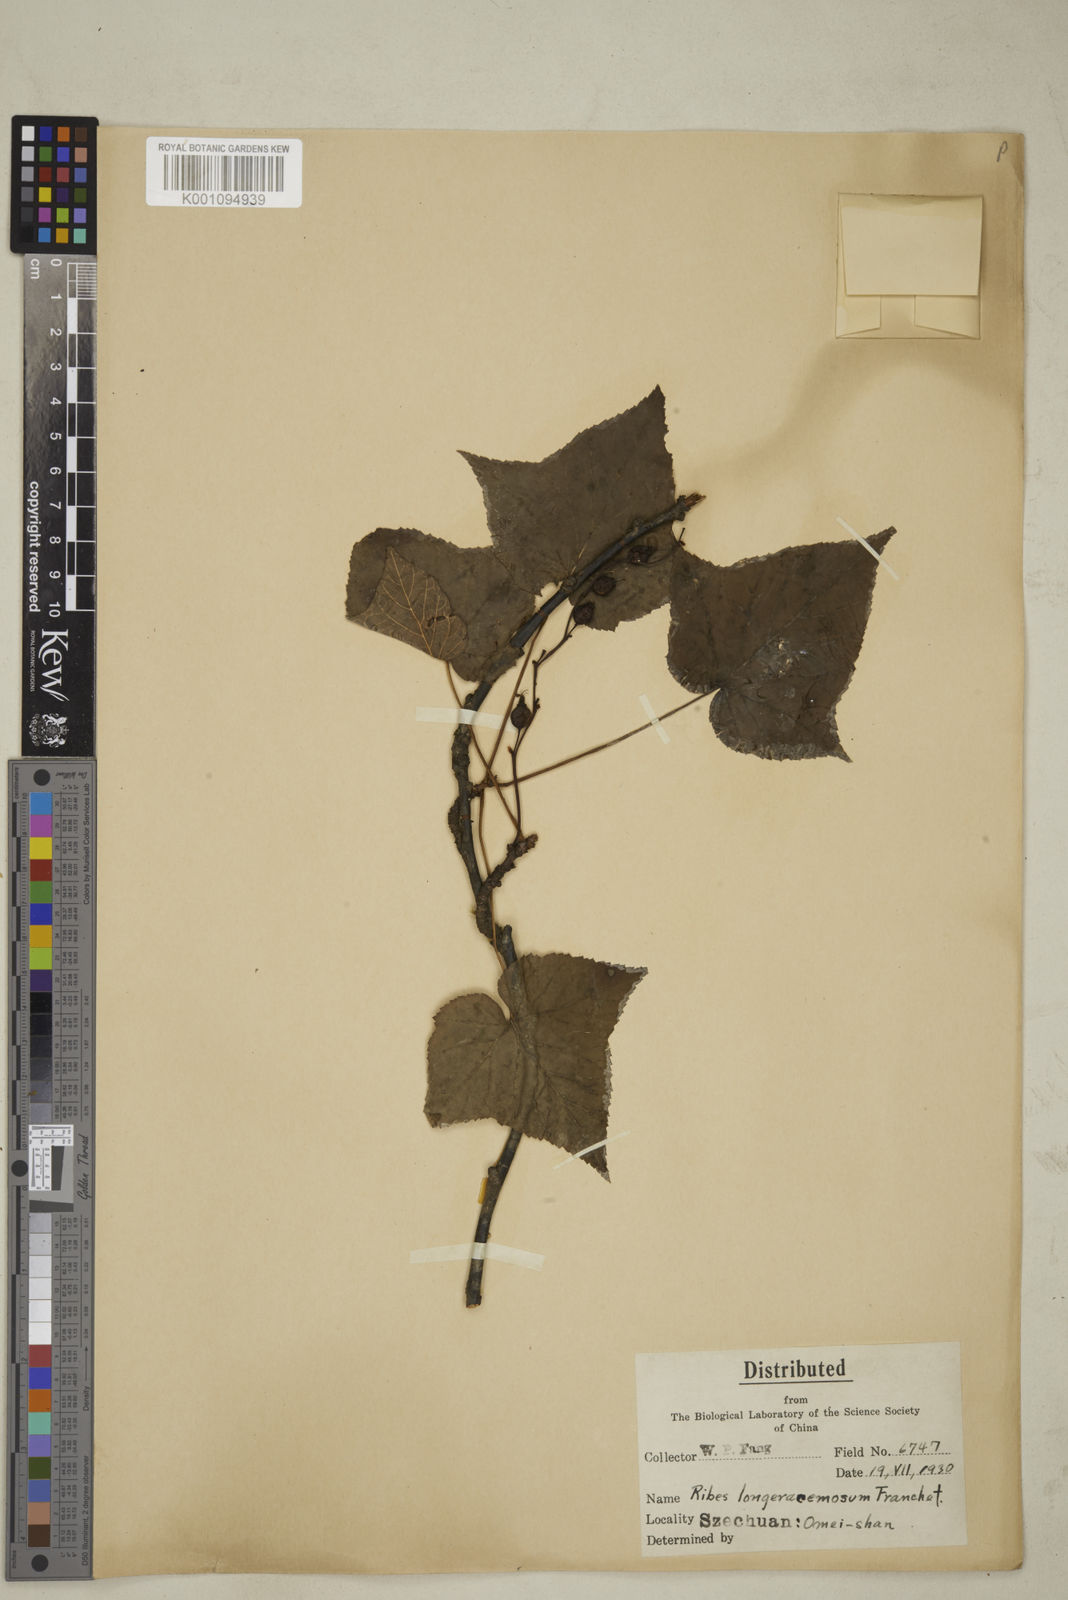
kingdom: Plantae
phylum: Tracheophyta
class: Magnoliopsida
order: Saxifragales
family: Grossulariaceae
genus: Ribes
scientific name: Ribes longeracemosum
